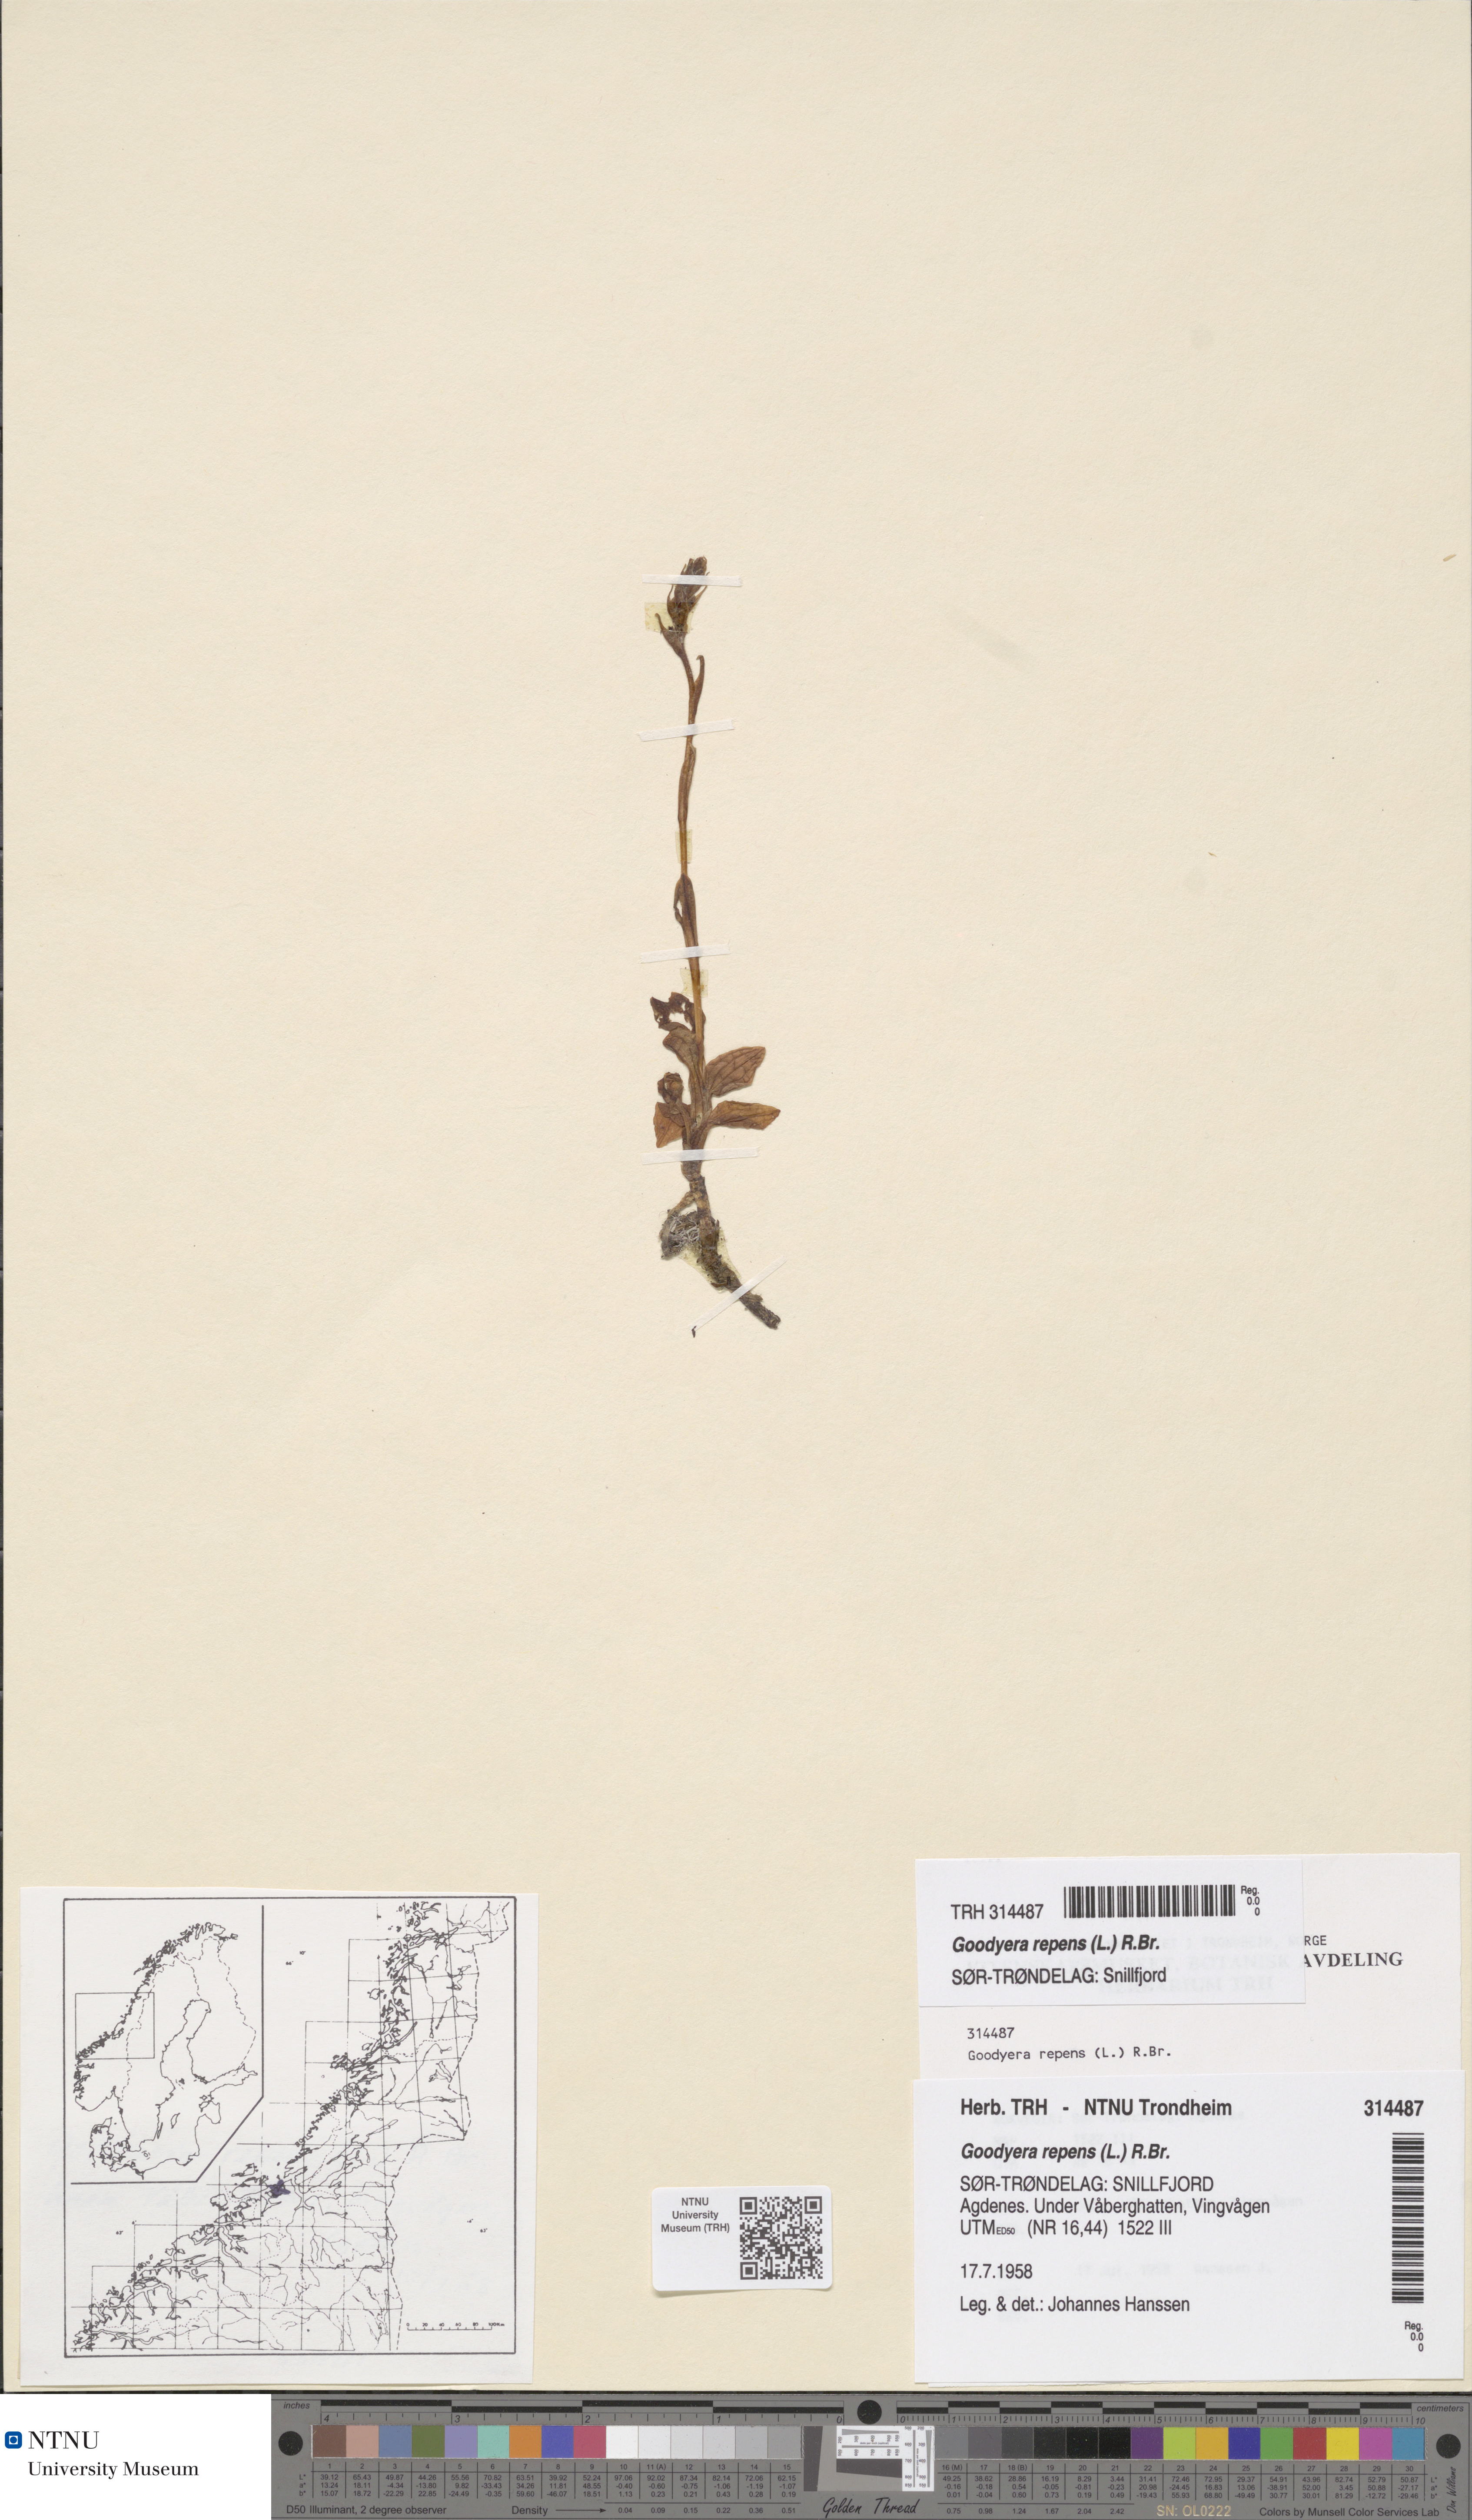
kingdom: Plantae
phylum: Tracheophyta
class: Liliopsida
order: Asparagales
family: Orchidaceae
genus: Goodyera
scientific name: Goodyera repens
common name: Creeping lady's-tresses
